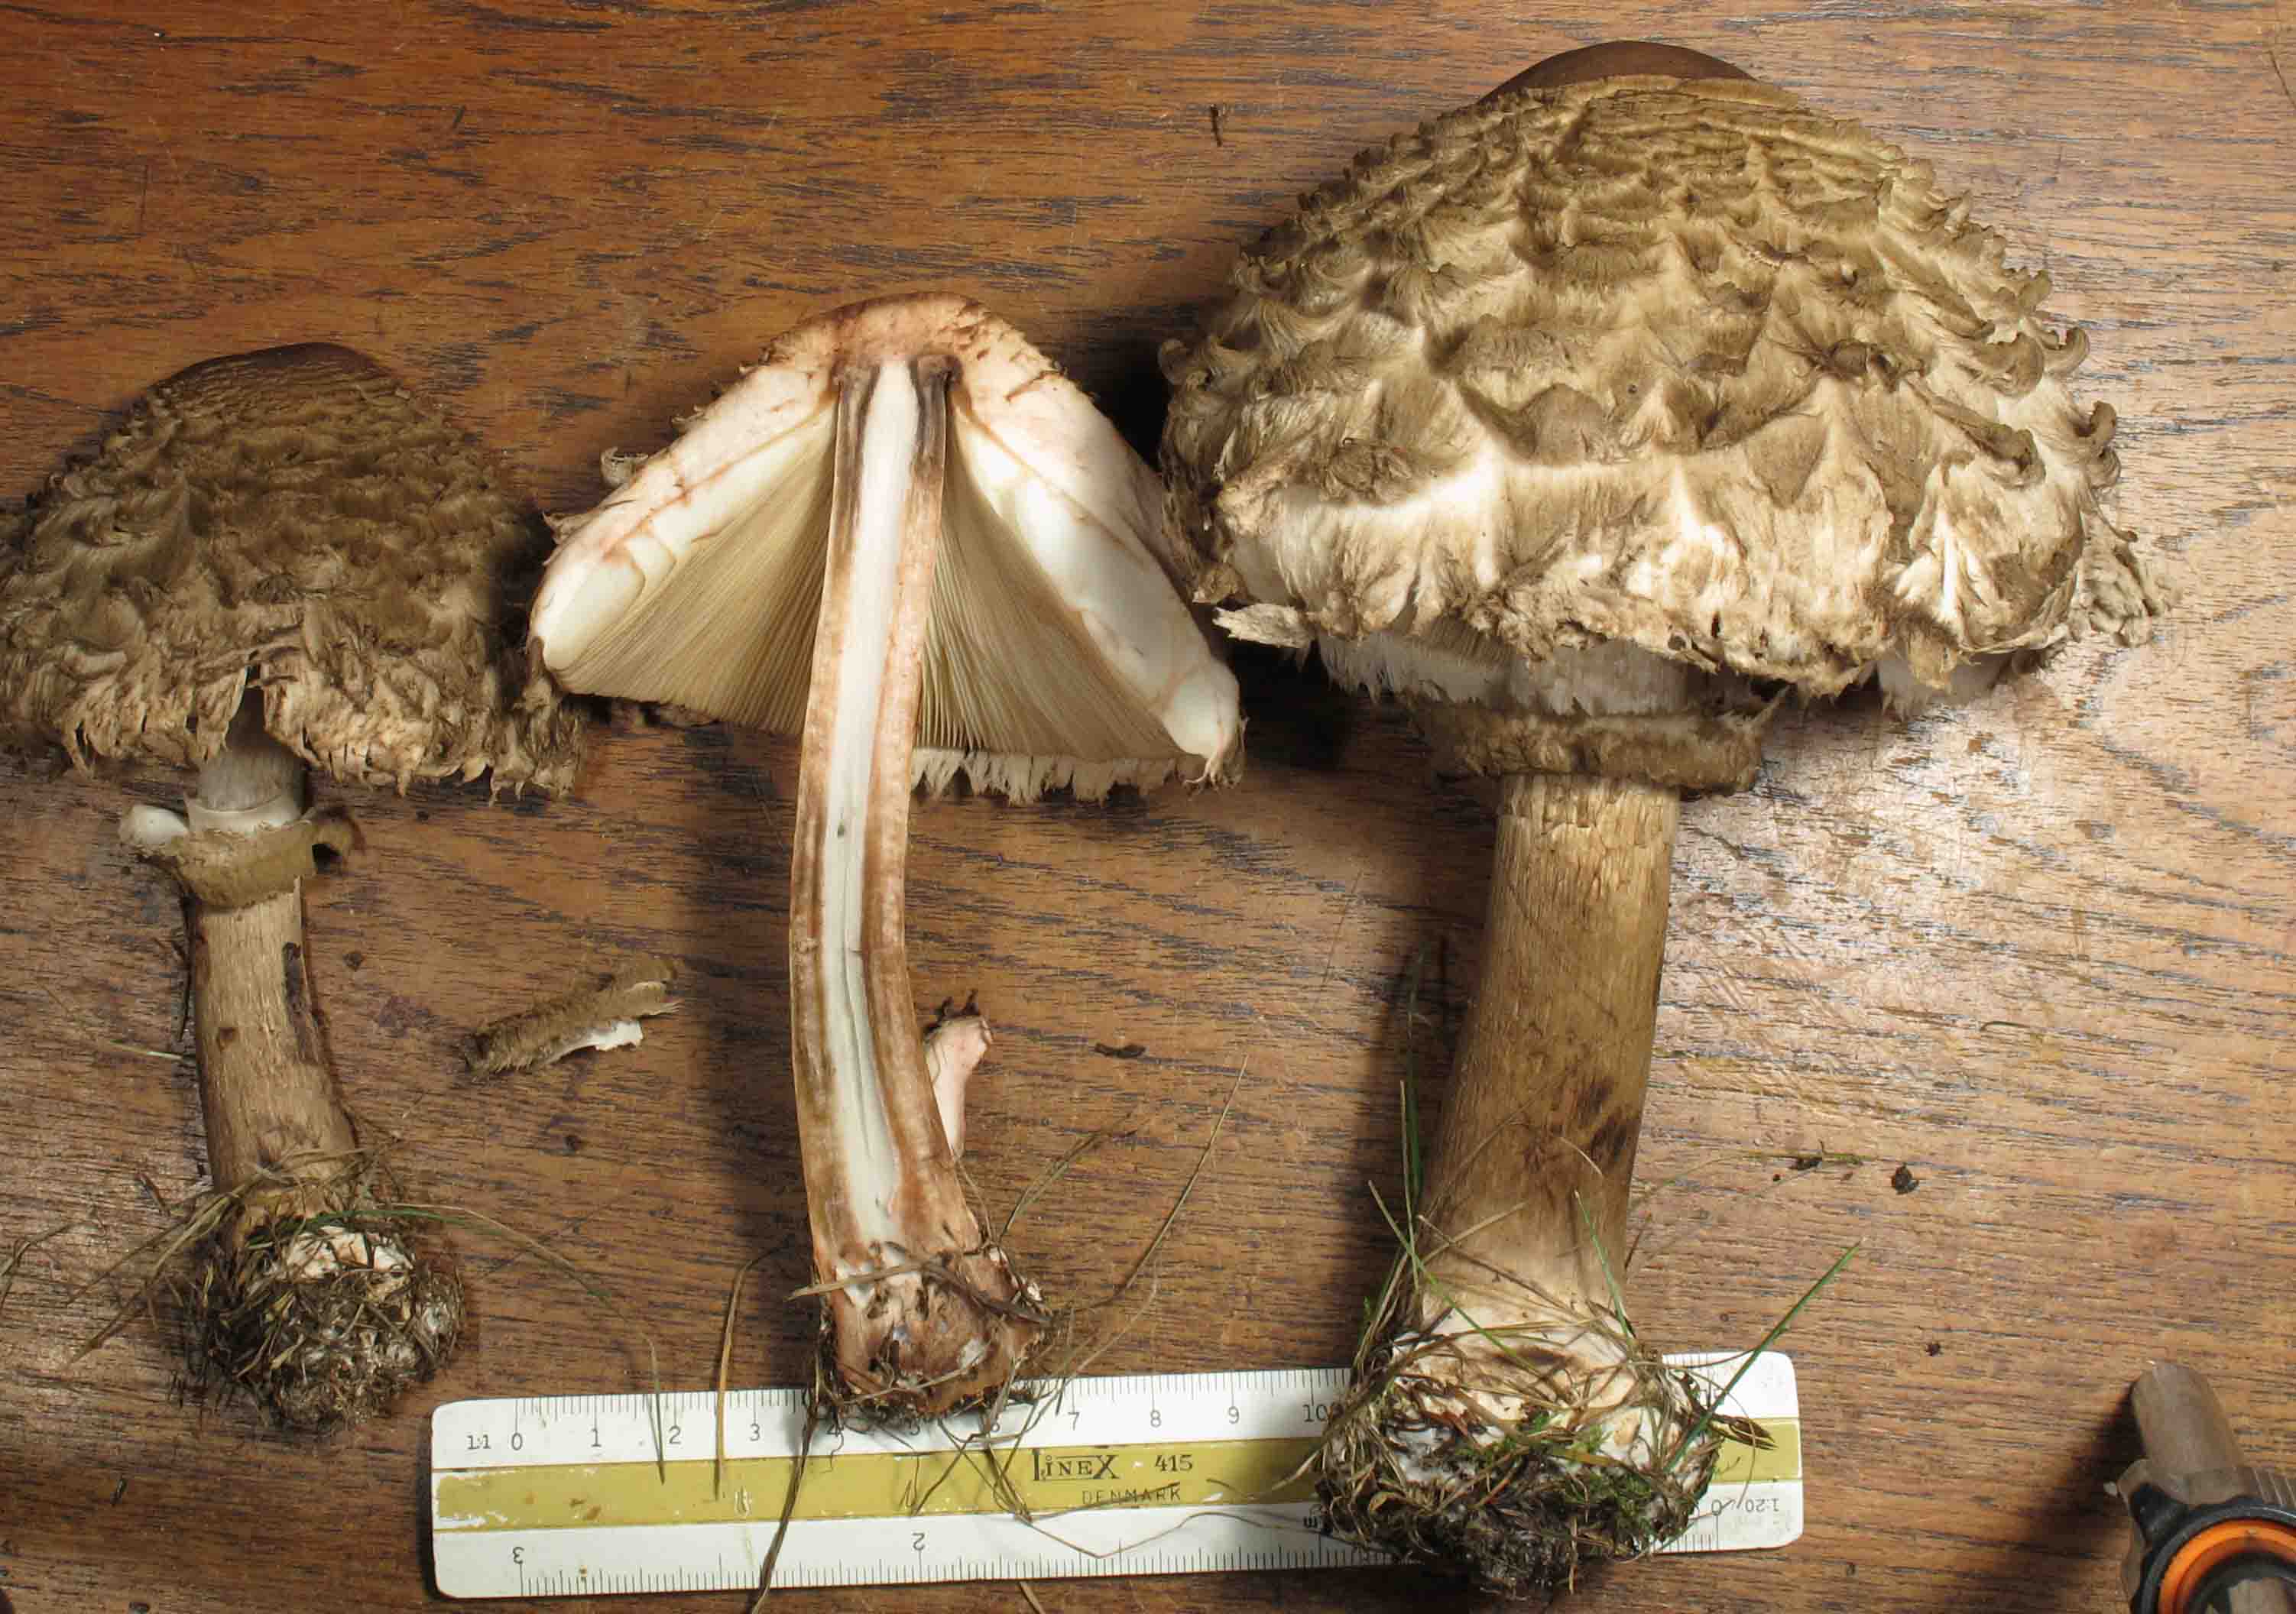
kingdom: Fungi
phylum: Basidiomycota
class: Agaricomycetes
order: Agaricales
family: Agaricaceae
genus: Chlorophyllum
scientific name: Chlorophyllum olivieri
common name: almindelig rabarberhat
